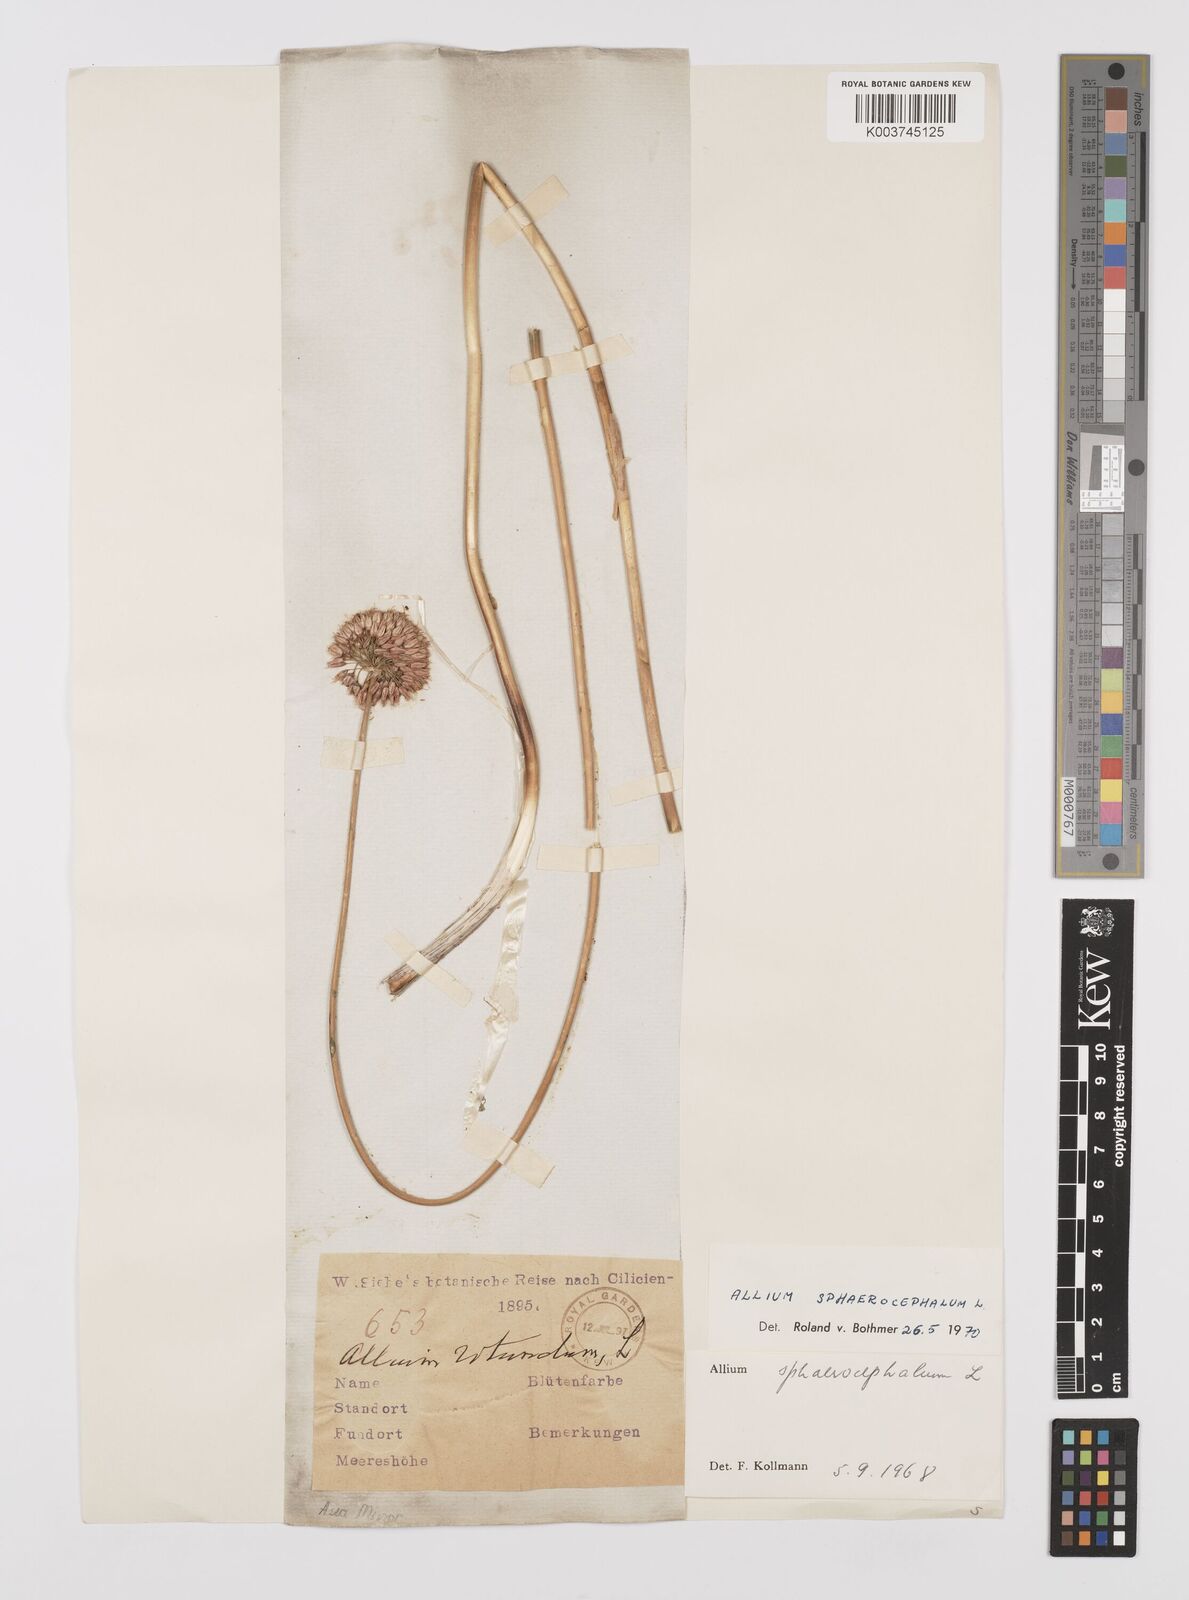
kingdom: Plantae
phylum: Tracheophyta
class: Liliopsida
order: Asparagales
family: Amaryllidaceae
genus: Allium
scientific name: Allium vineale
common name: Crow garlic
